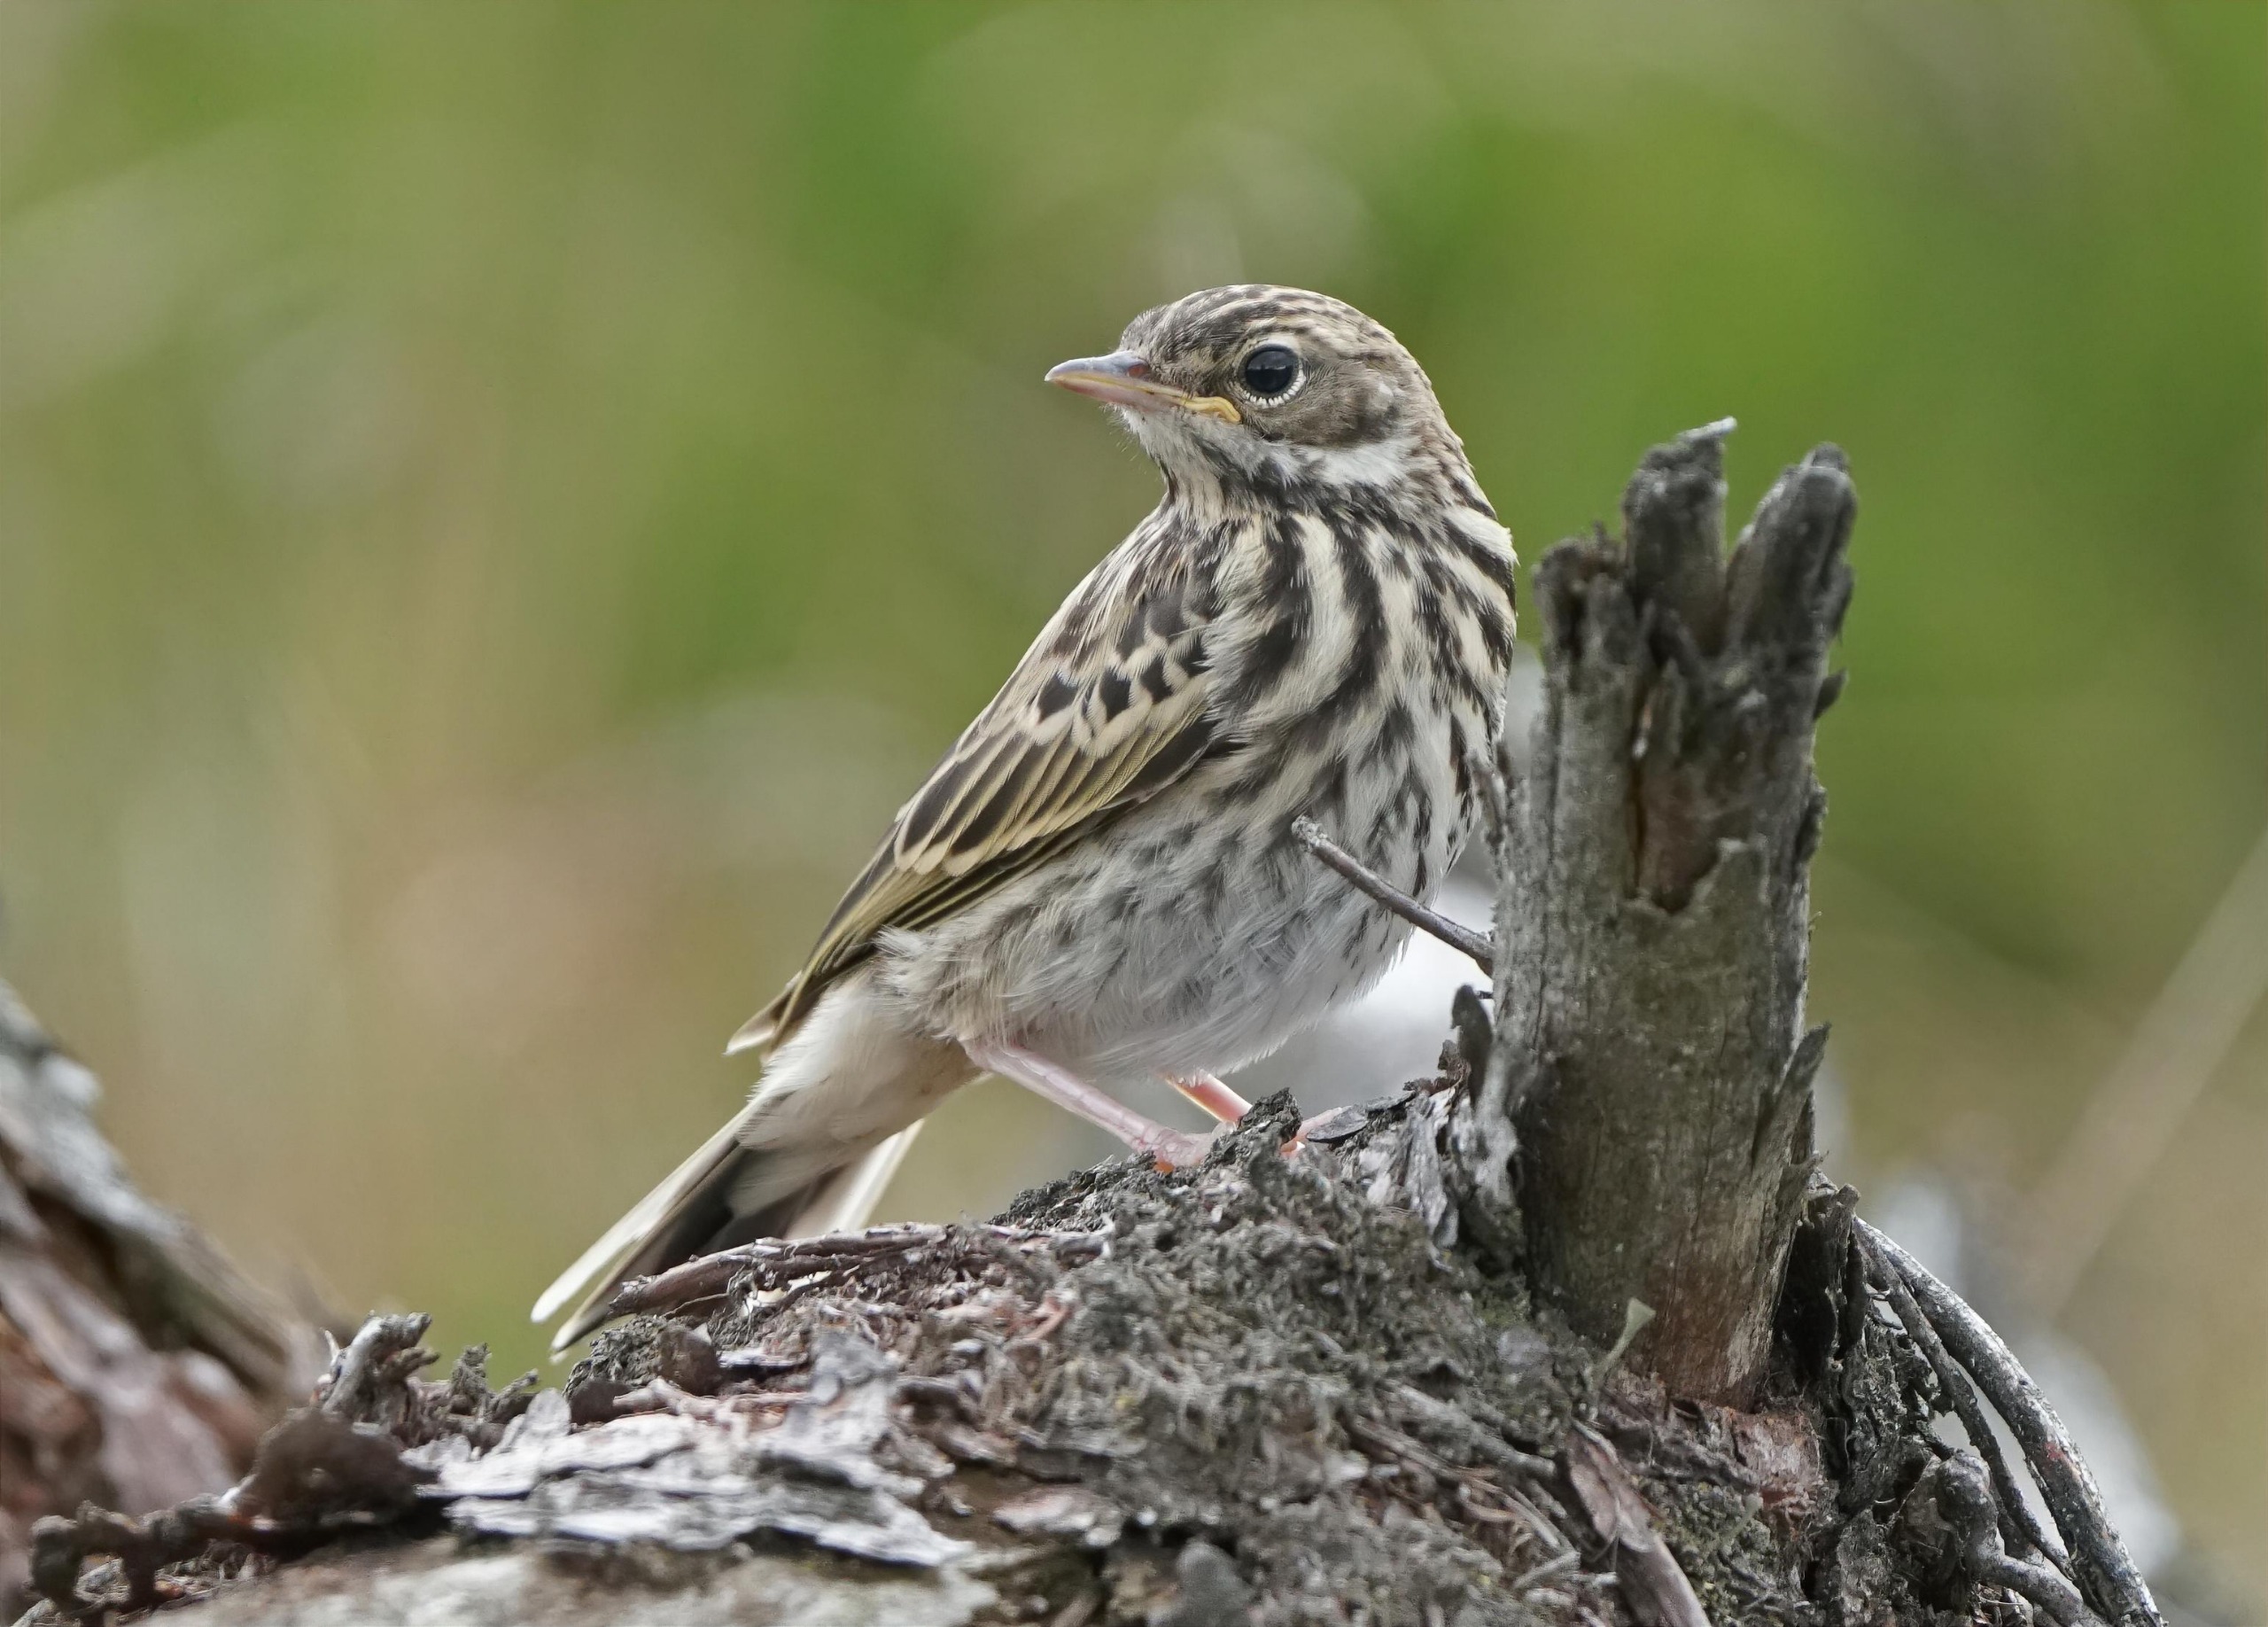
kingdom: Animalia
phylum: Chordata
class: Aves
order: Passeriformes
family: Motacillidae
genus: Anthus
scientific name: Anthus trivialis
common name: Skovpiber
